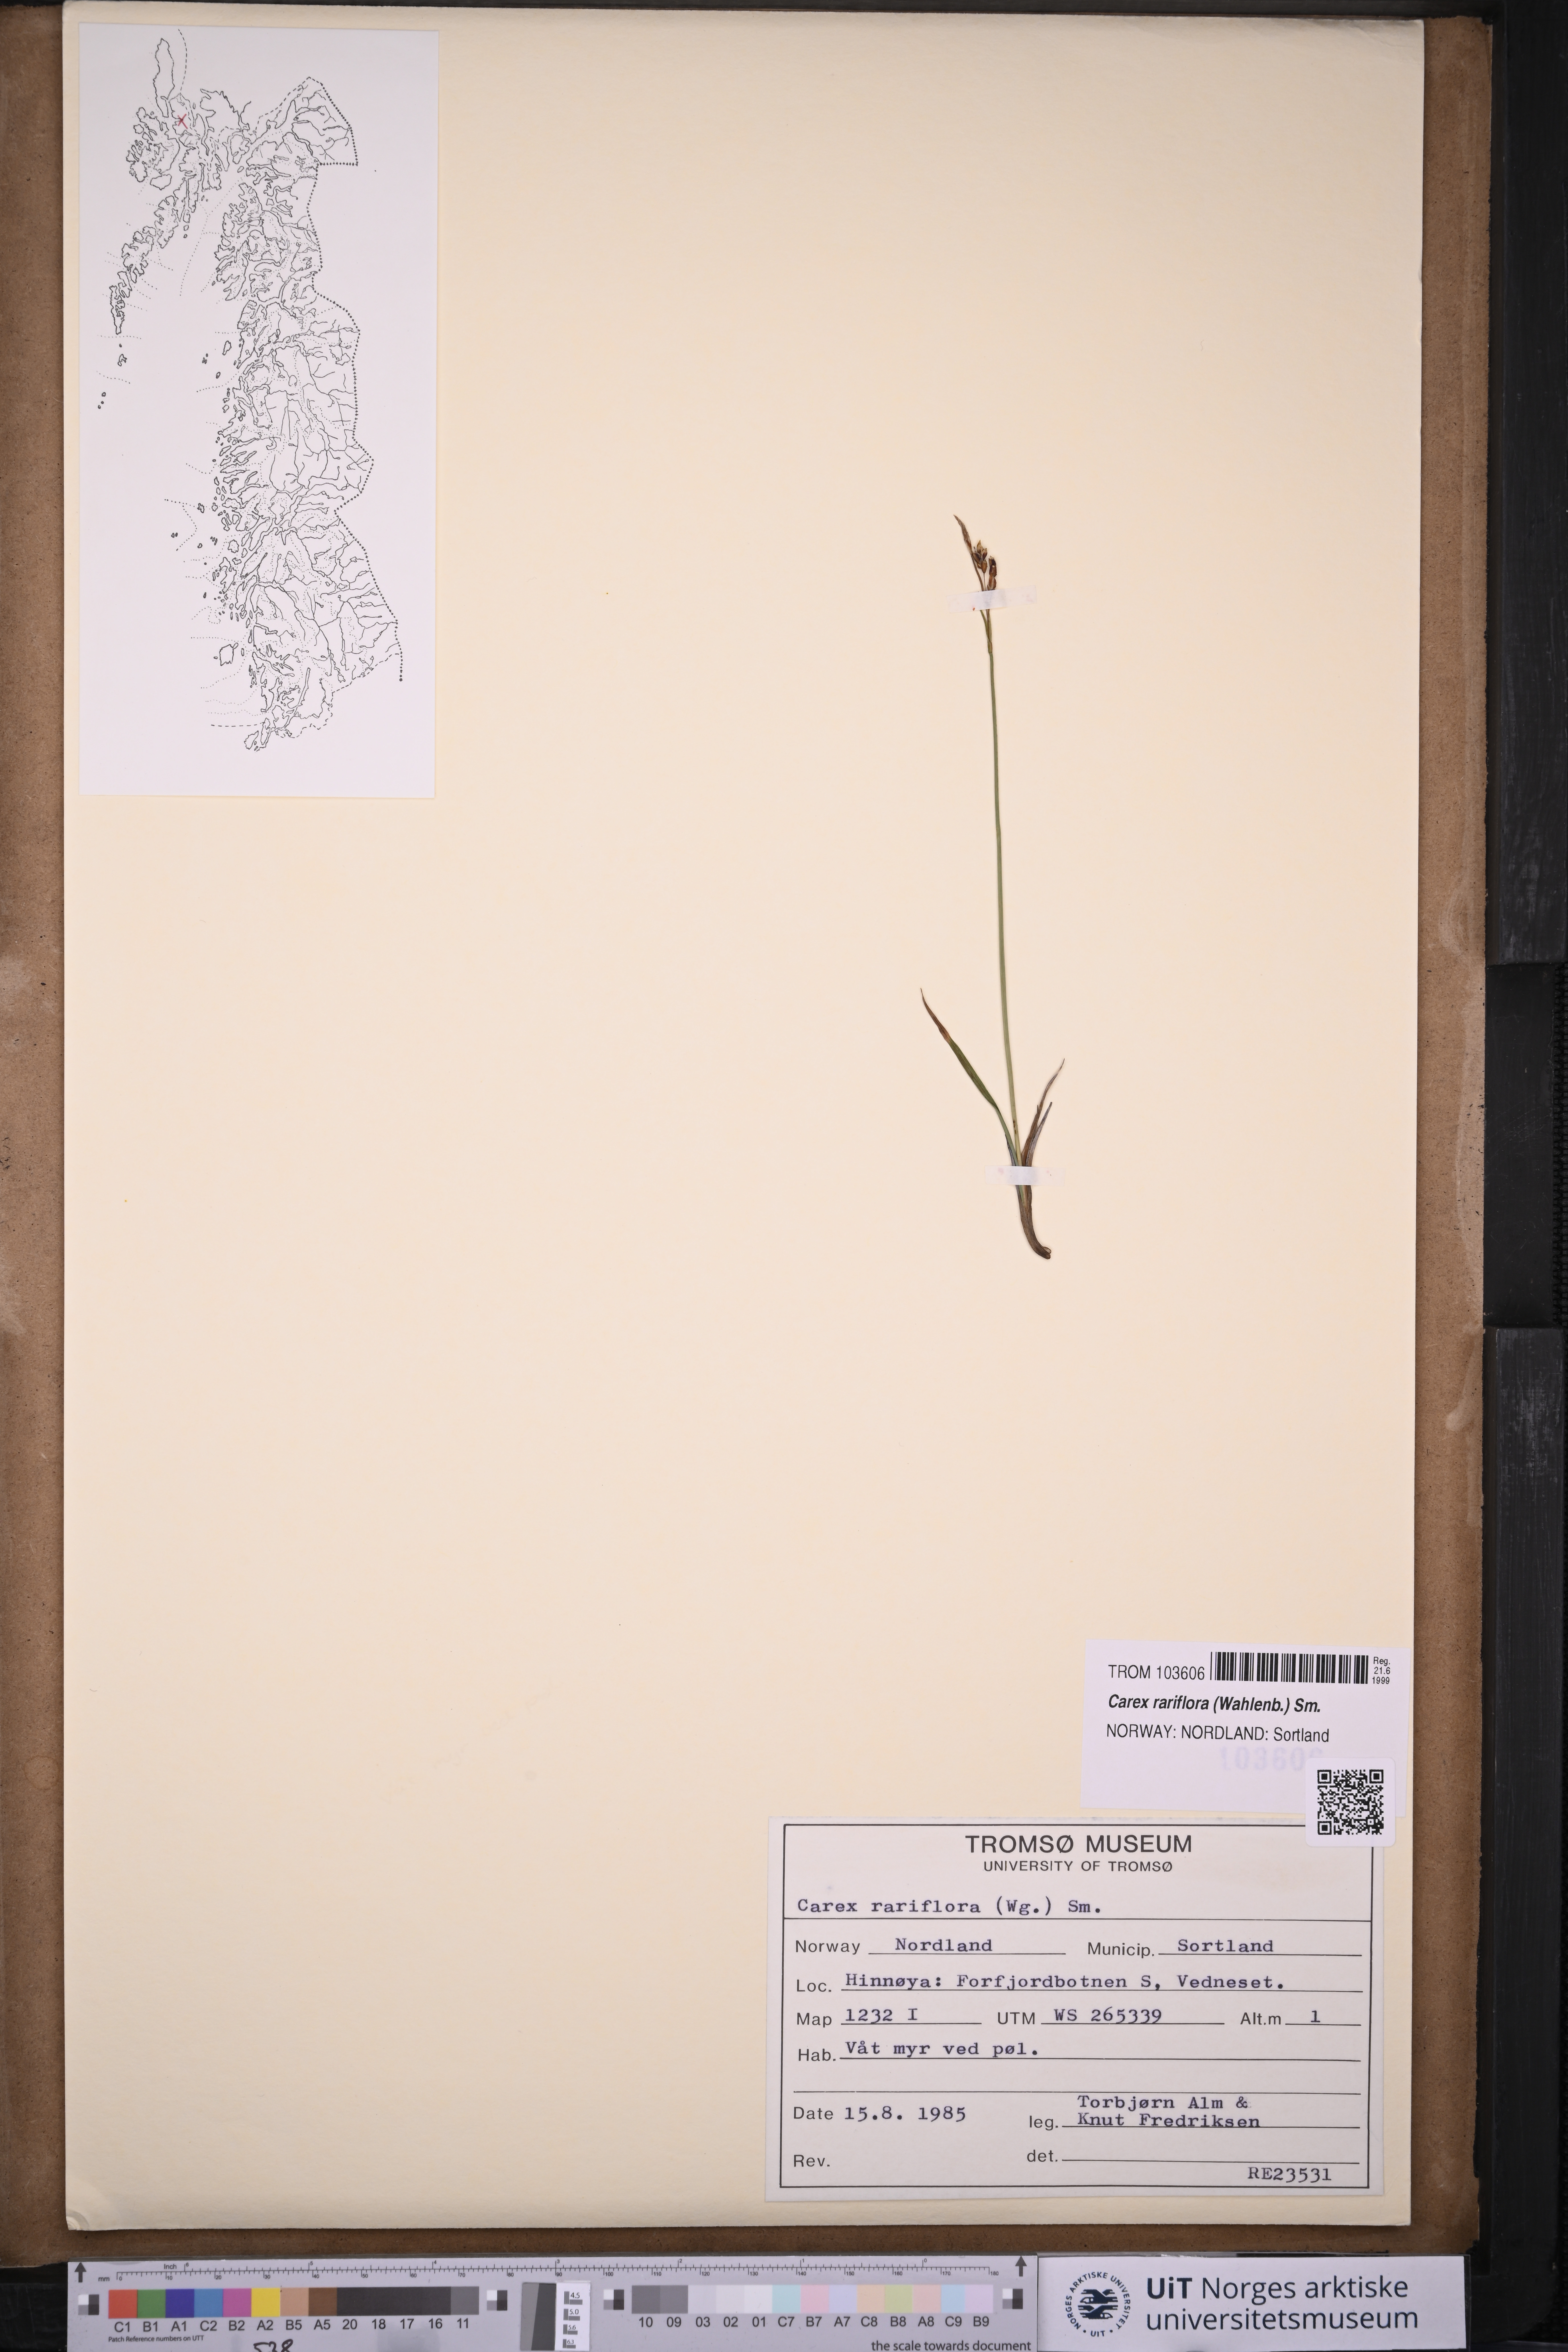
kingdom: Plantae
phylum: Tracheophyta
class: Liliopsida
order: Poales
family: Cyperaceae
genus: Carex
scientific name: Carex rariflora
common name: Loose-flowered alpine sedge
